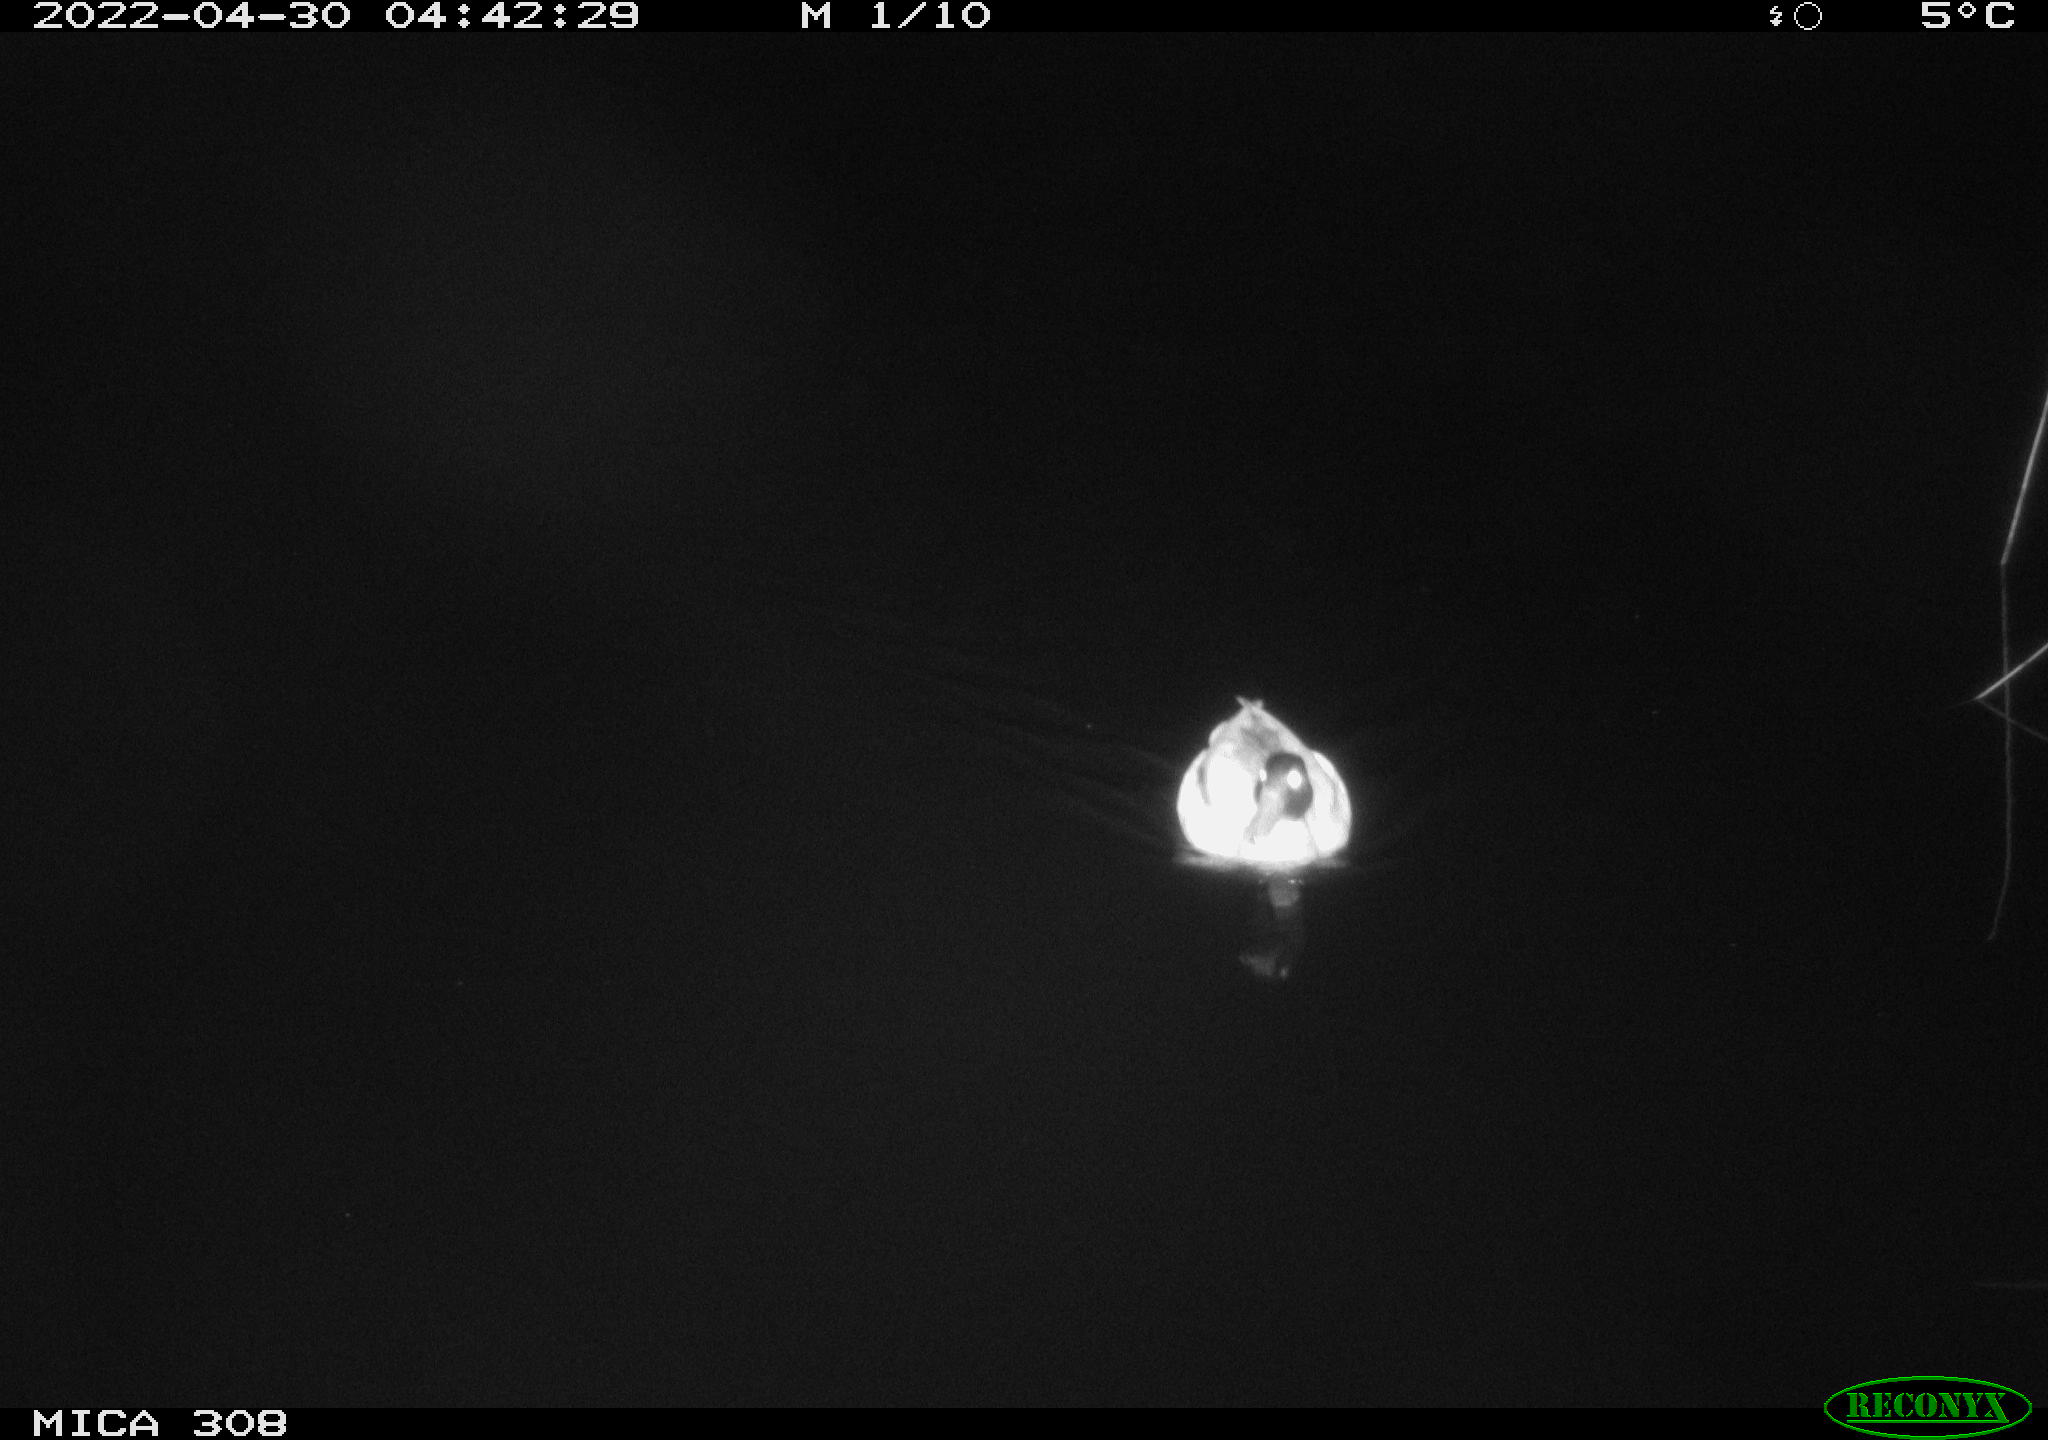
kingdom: Animalia
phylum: Chordata
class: Aves
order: Anseriformes
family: Anatidae
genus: Anas
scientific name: Anas platyrhynchos
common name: Mallard
